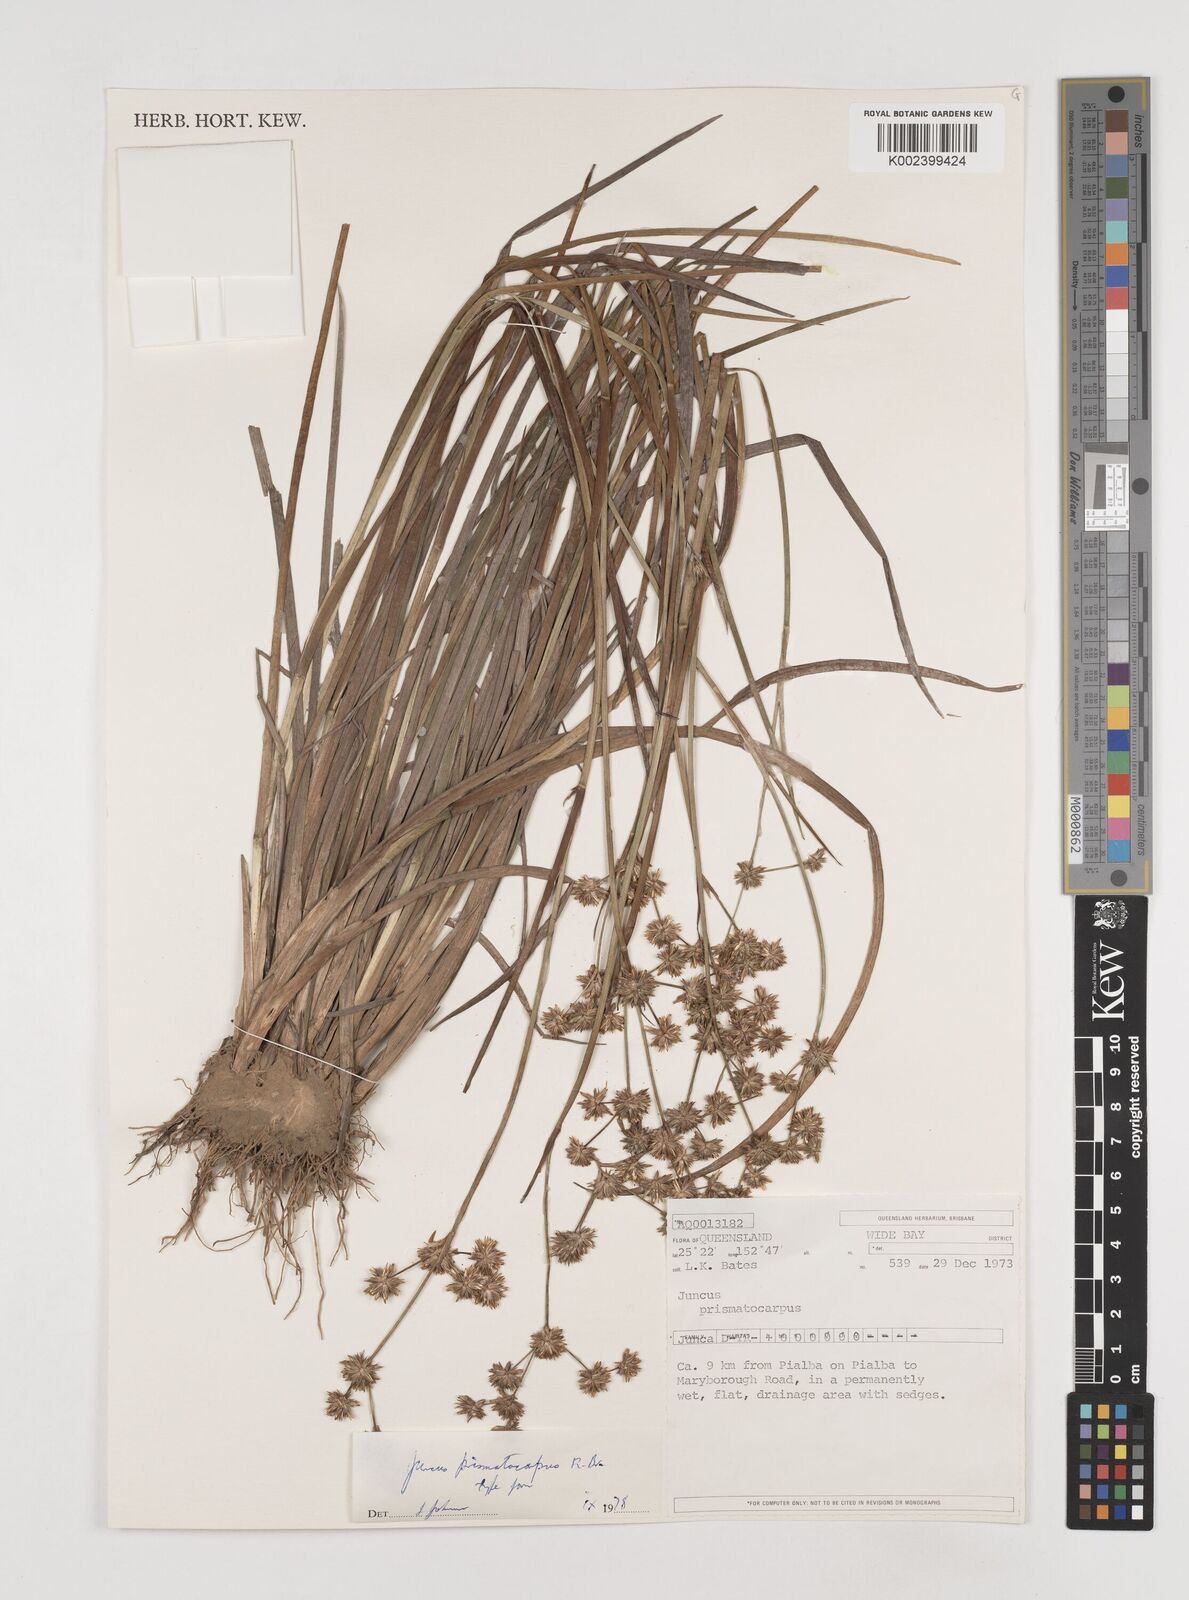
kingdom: Plantae
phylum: Tracheophyta
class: Liliopsida
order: Poales
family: Juncaceae
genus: Juncus
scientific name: Juncus prismatocarpus
